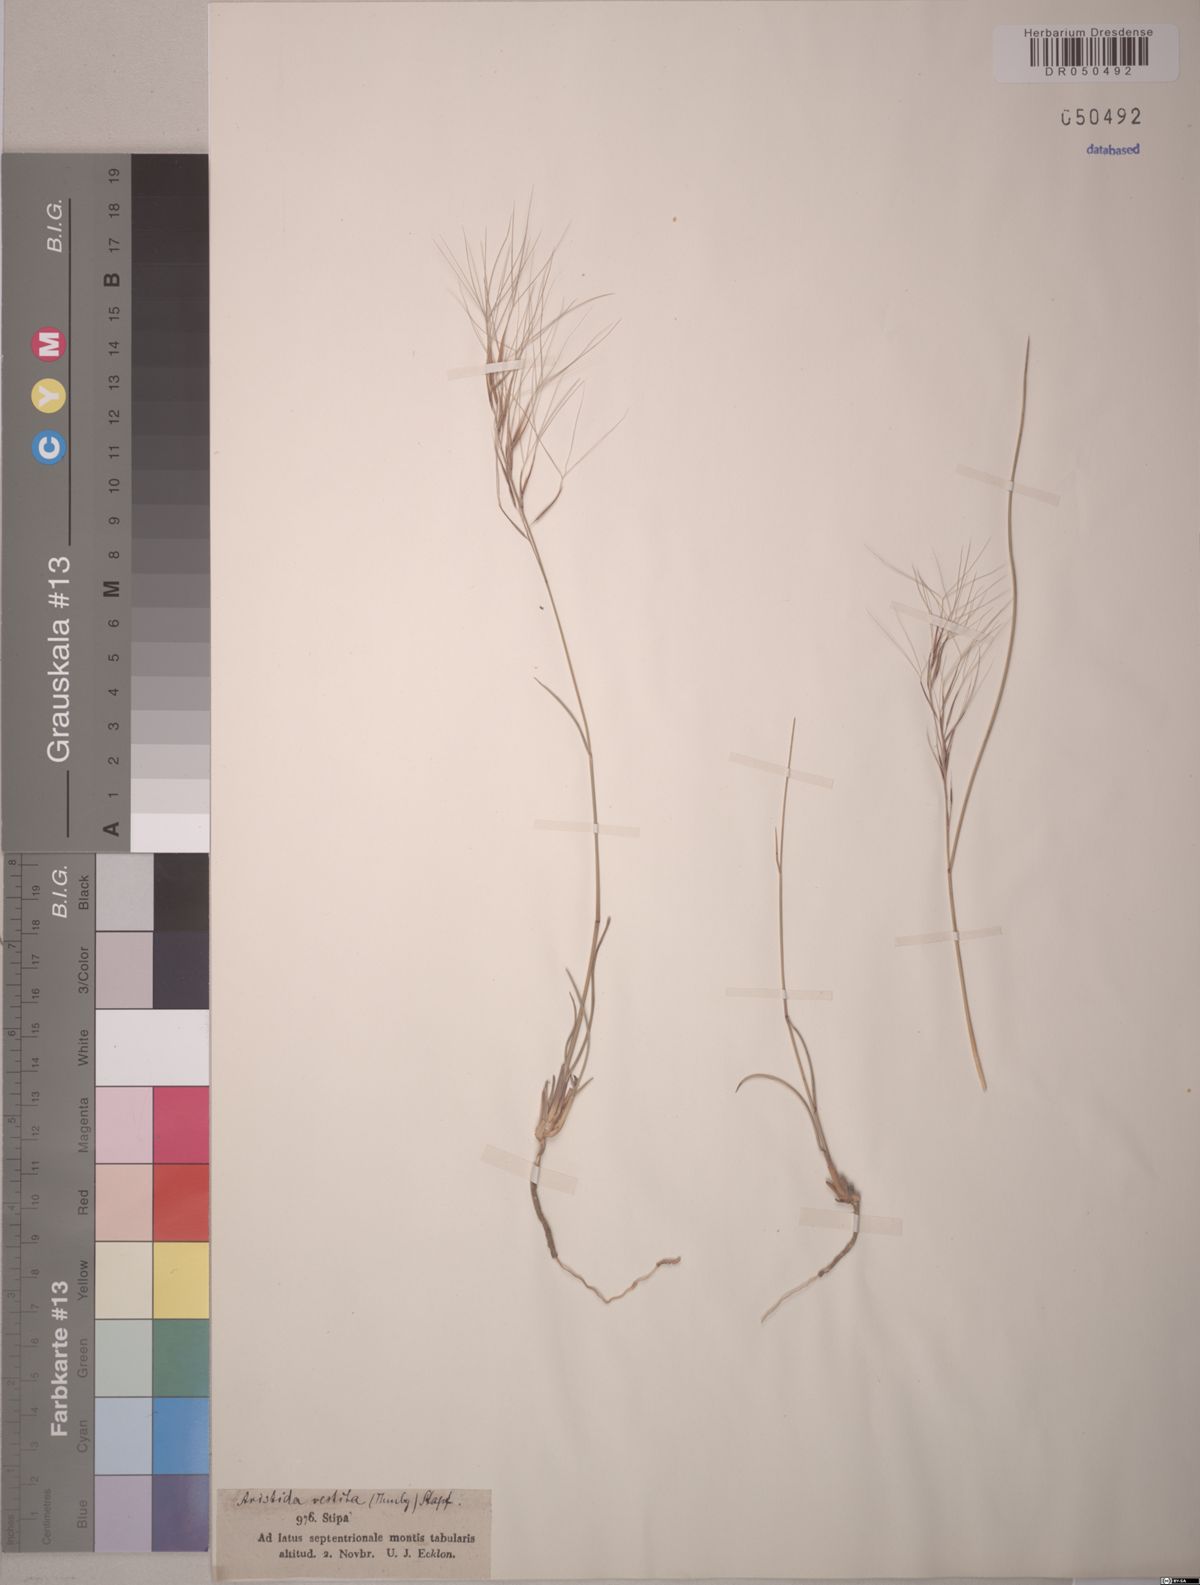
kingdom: Plantae
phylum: Tracheophyta
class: Liliopsida
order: Poales
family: Poaceae
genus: Aristida
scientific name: Aristida diffusa
